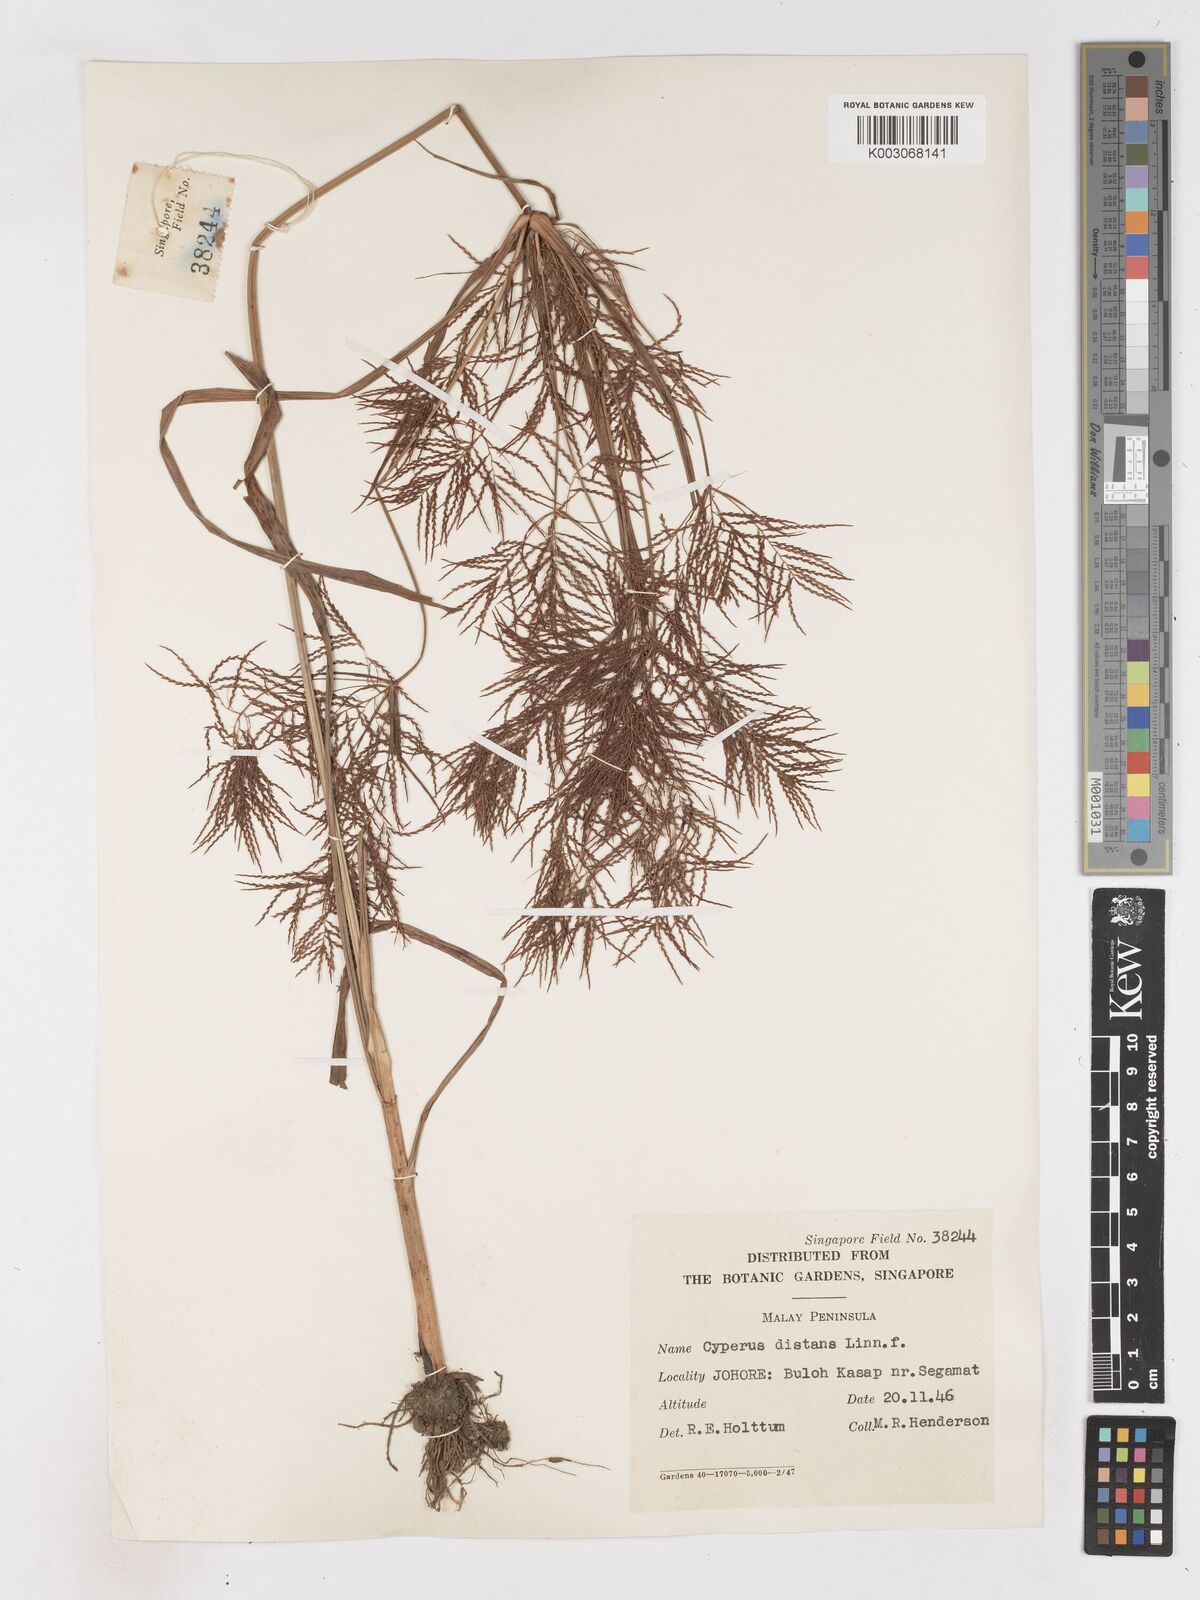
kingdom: Plantae
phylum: Tracheophyta
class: Liliopsida
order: Poales
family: Cyperaceae
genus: Cyperus
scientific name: Cyperus distans
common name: Slender cyperus
